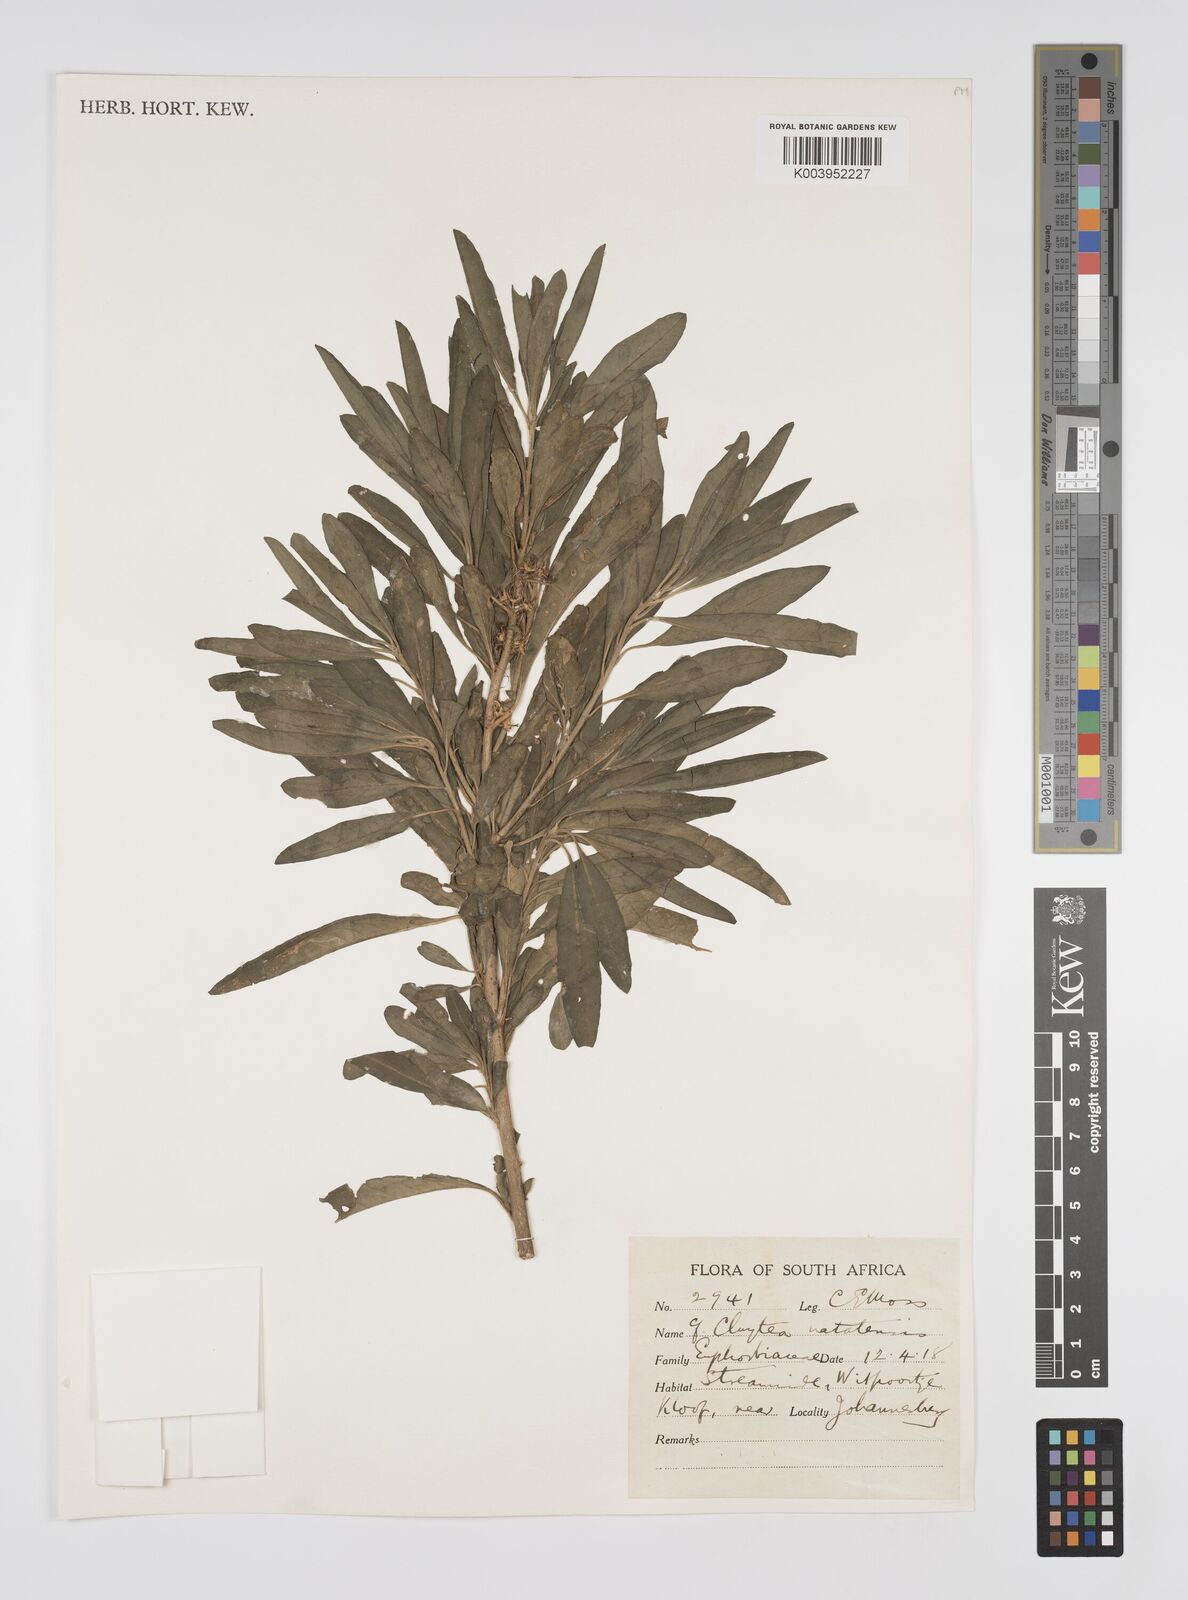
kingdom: Plantae
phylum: Tracheophyta
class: Magnoliopsida
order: Malpighiales
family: Peraceae
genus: Clutia
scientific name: Clutia natalensis
